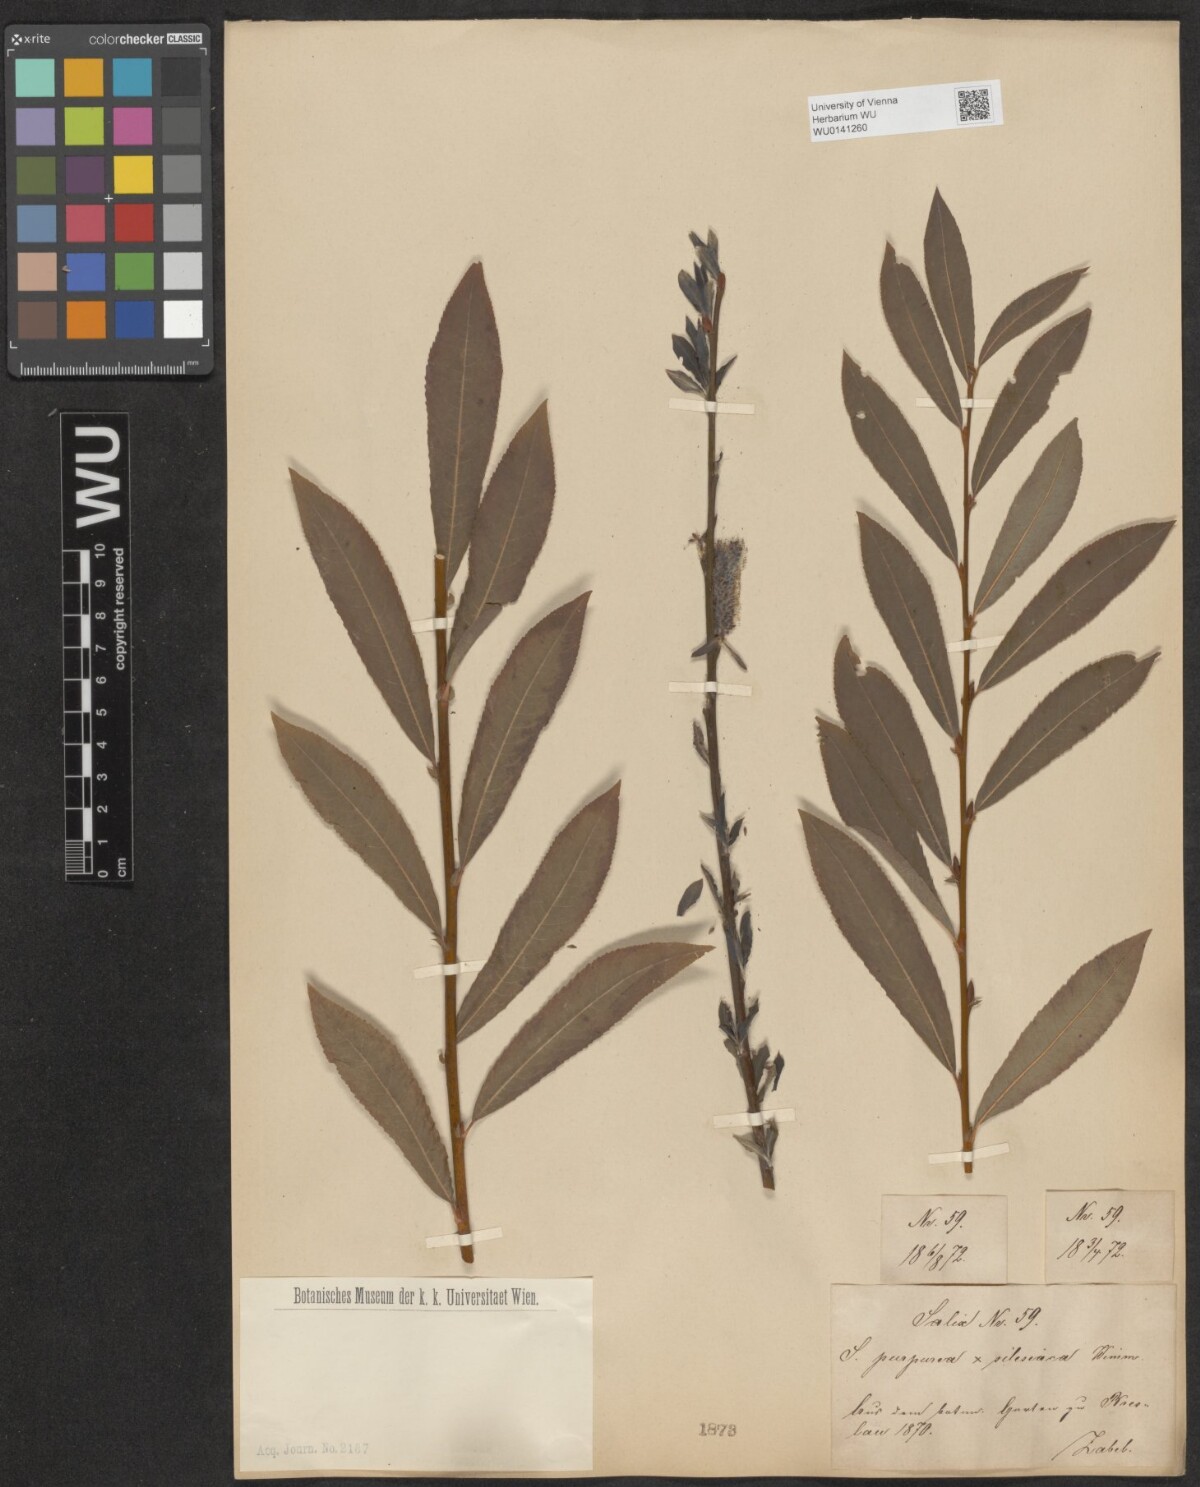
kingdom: Plantae
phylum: Tracheophyta
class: Magnoliopsida
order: Malpighiales
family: Salicaceae
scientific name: Salicaceae
